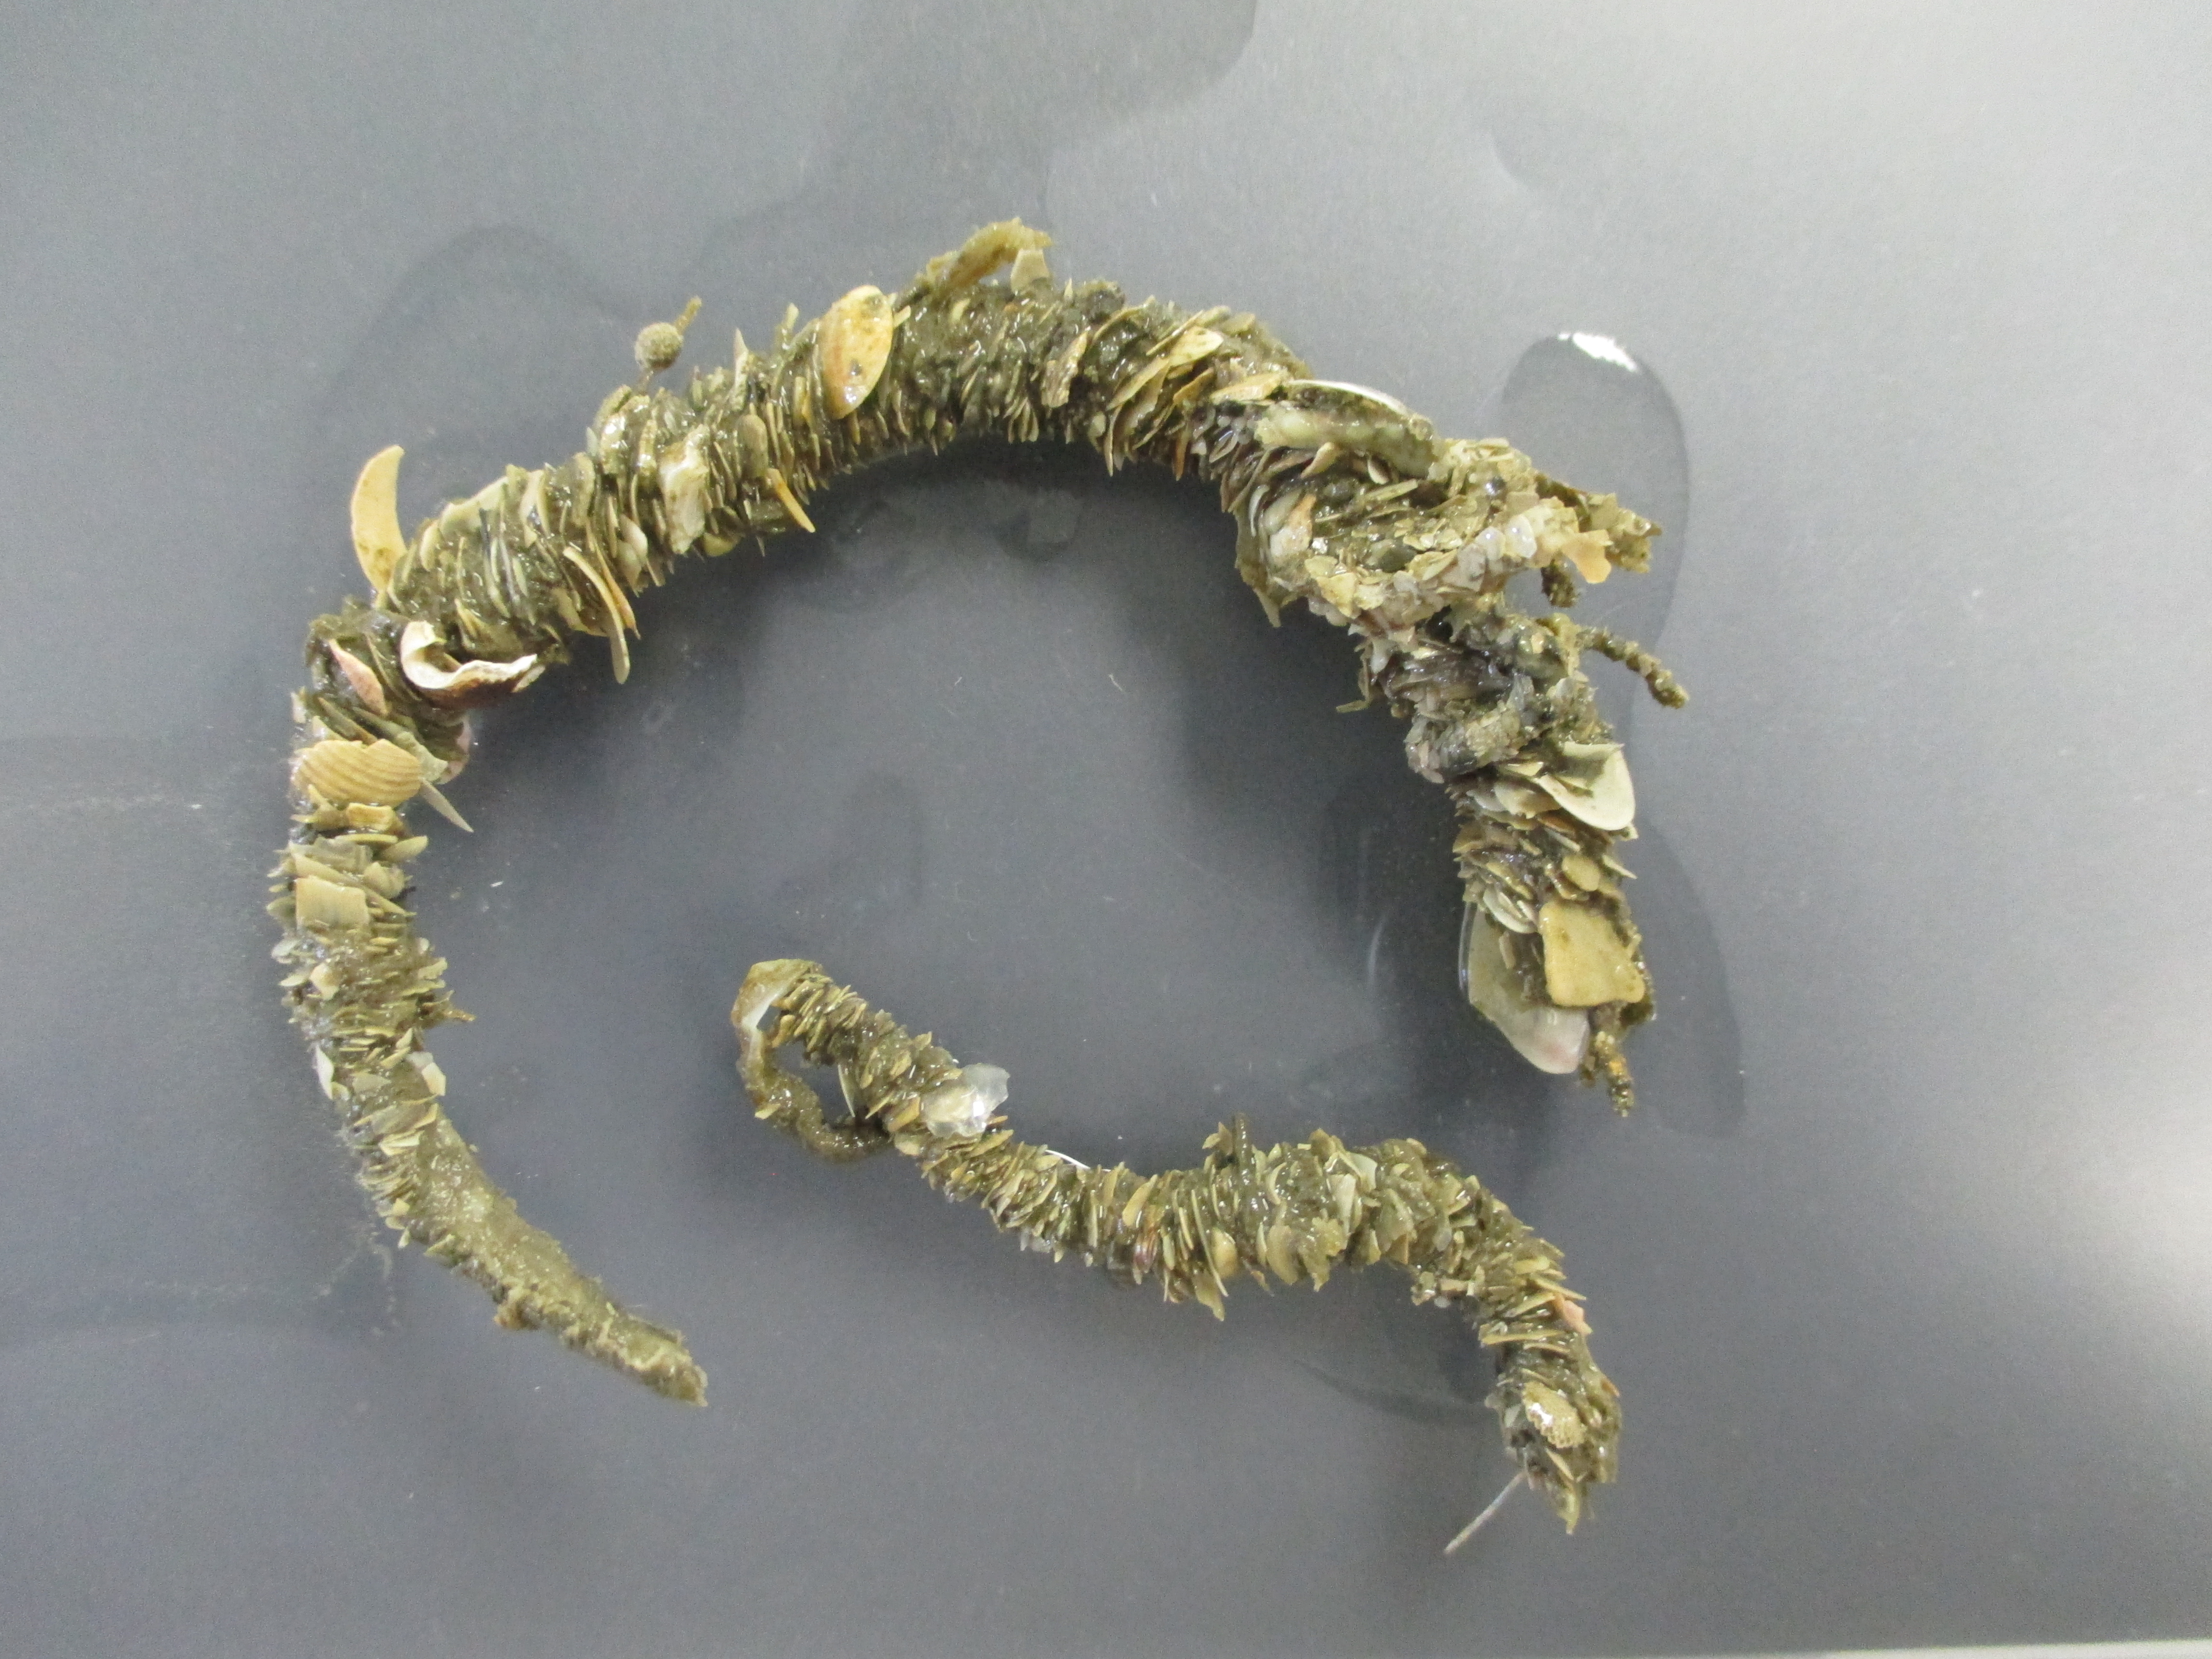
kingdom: Animalia
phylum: Annelida
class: Polychaeta
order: Eunicida
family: Onuphidae
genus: Diopatra
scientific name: Diopatra
